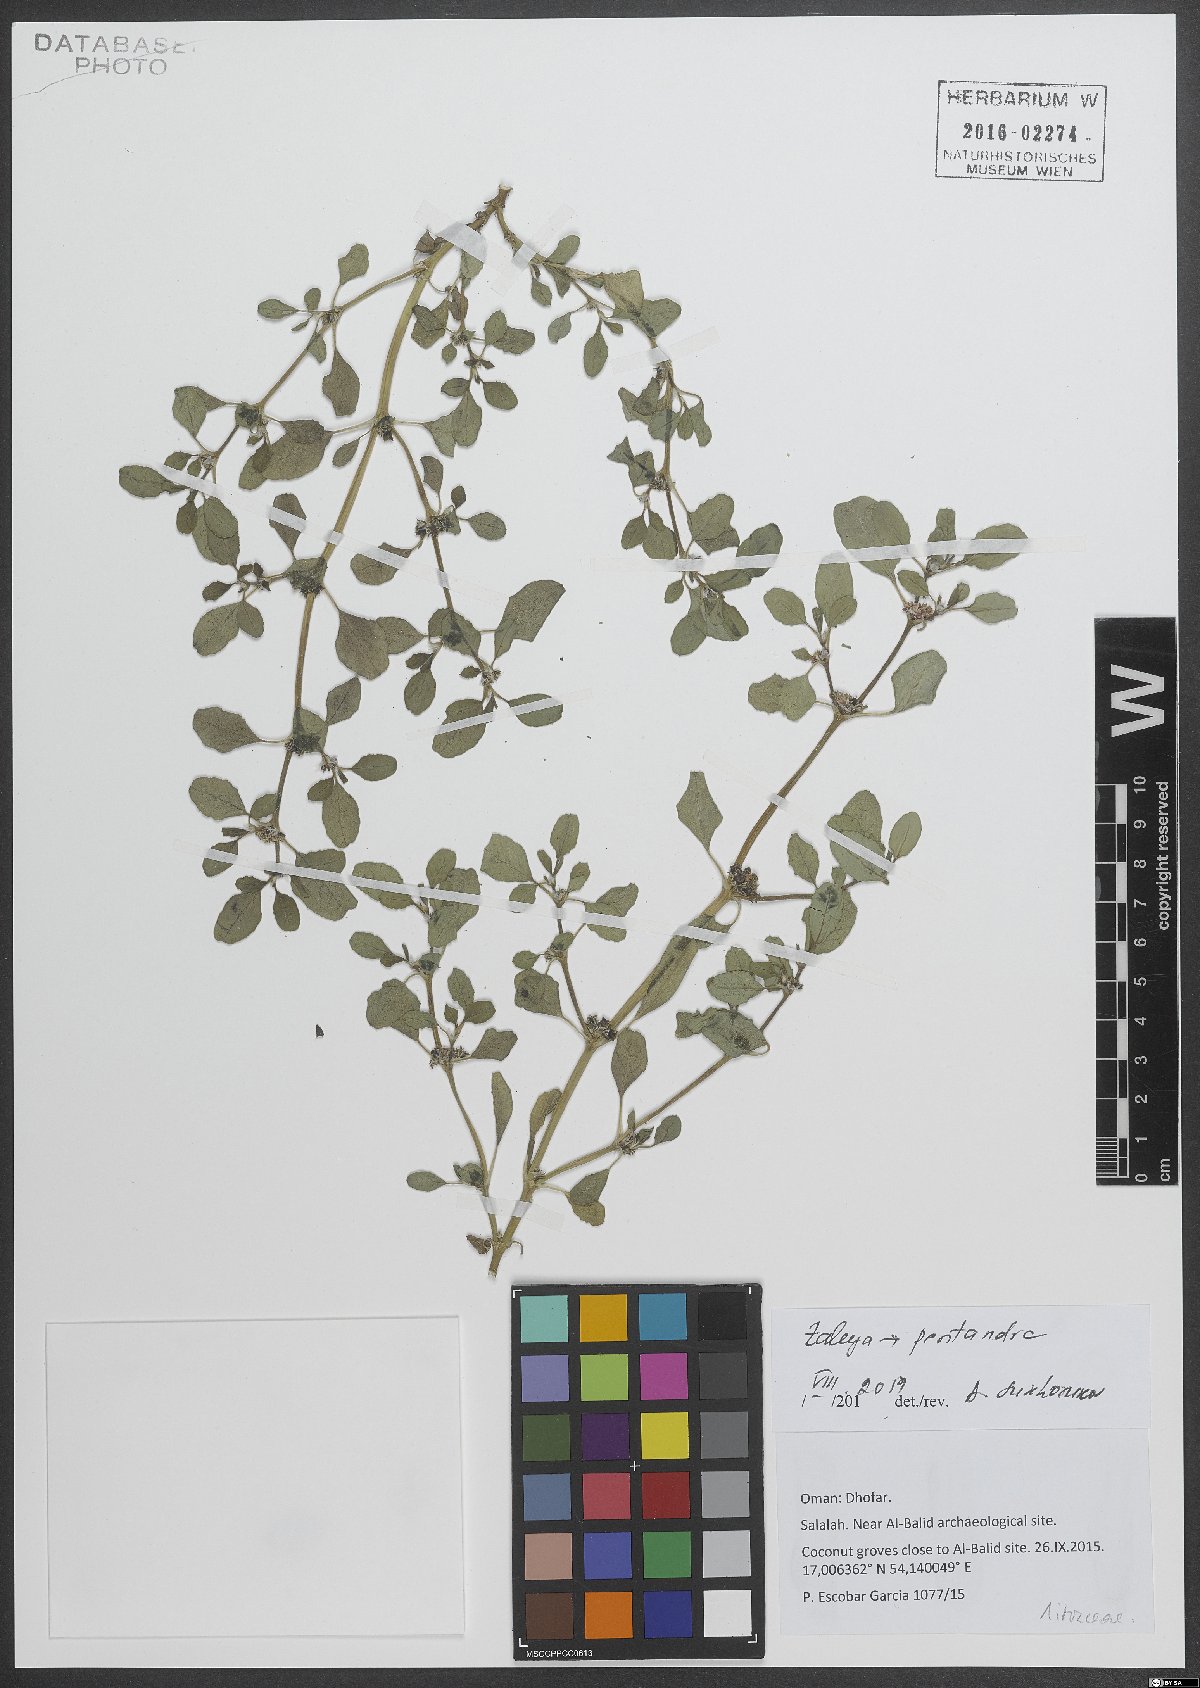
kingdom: Plantae
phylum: Tracheophyta
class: Magnoliopsida
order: Caryophyllales
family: Aizoaceae
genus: Zaleya
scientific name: Zaleya pentandra
